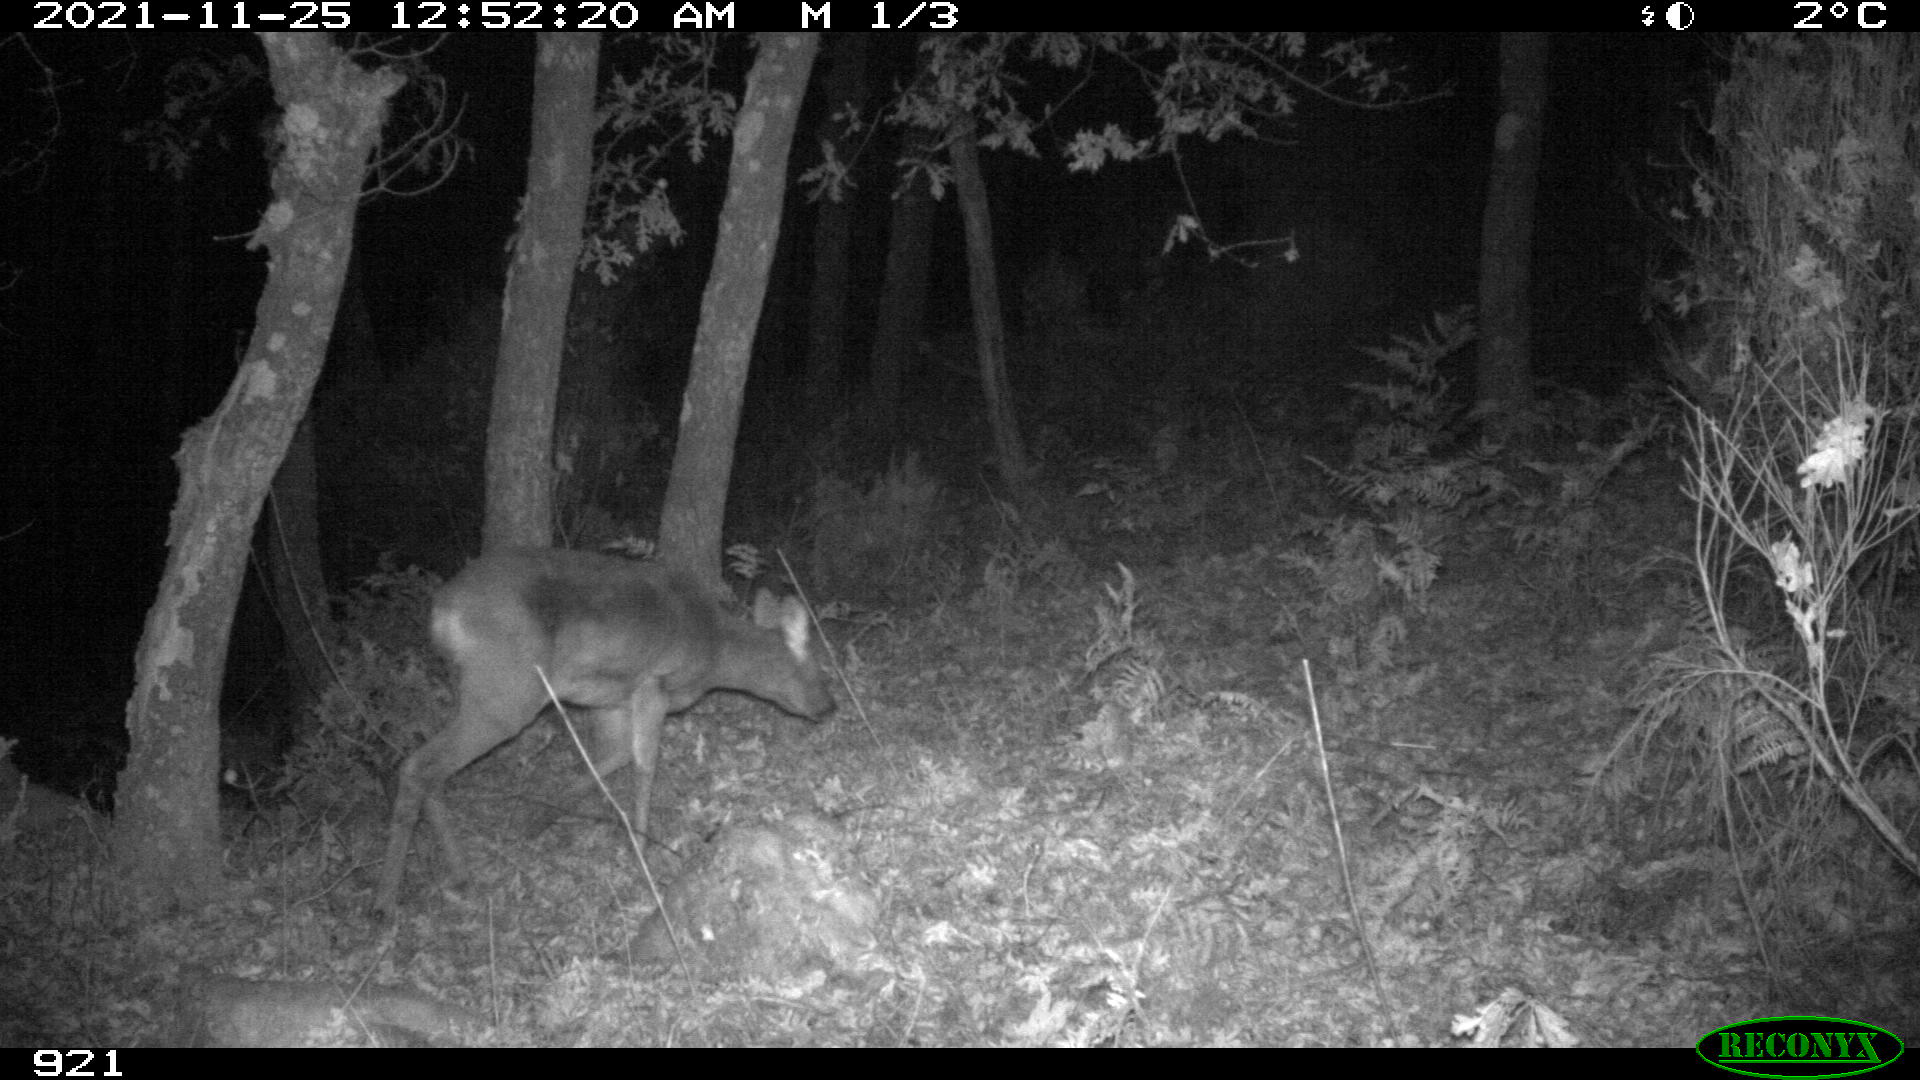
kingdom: Animalia
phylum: Chordata
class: Mammalia
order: Artiodactyla
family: Cervidae
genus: Capreolus
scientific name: Capreolus capreolus
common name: Western roe deer
